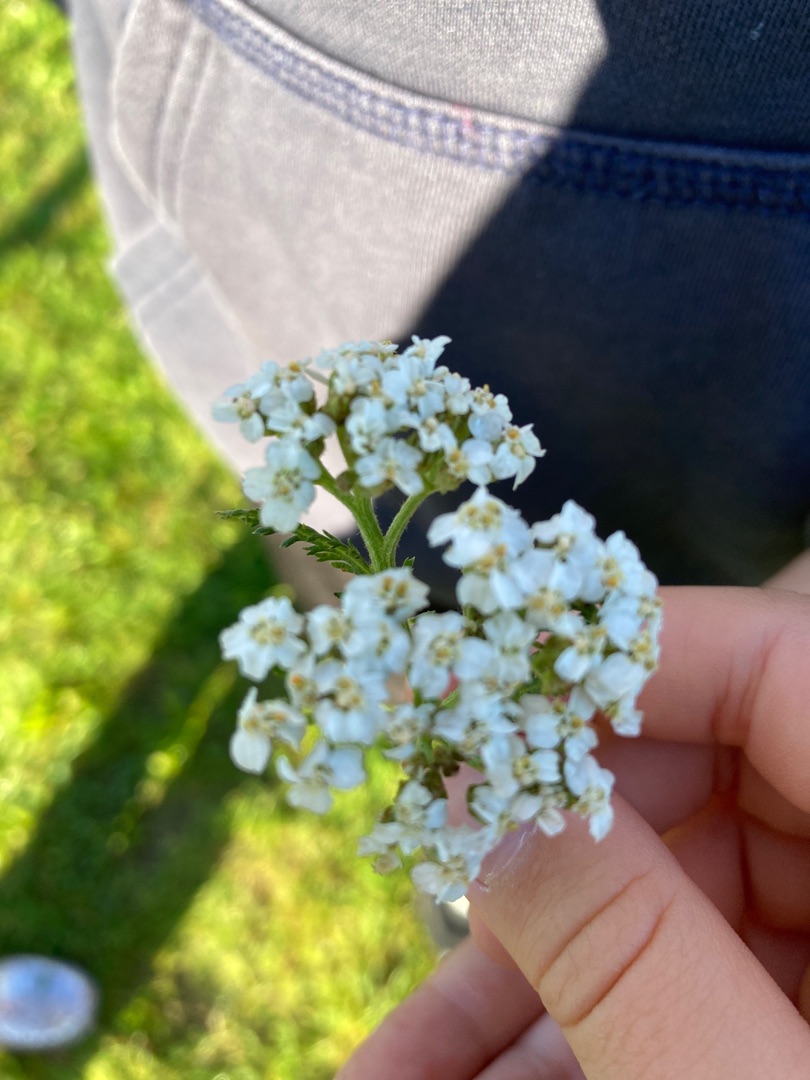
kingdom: Plantae
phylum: Tracheophyta
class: Magnoliopsida
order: Asterales
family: Asteraceae
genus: Achillea
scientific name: Achillea millefolium
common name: Almindelig røllike
